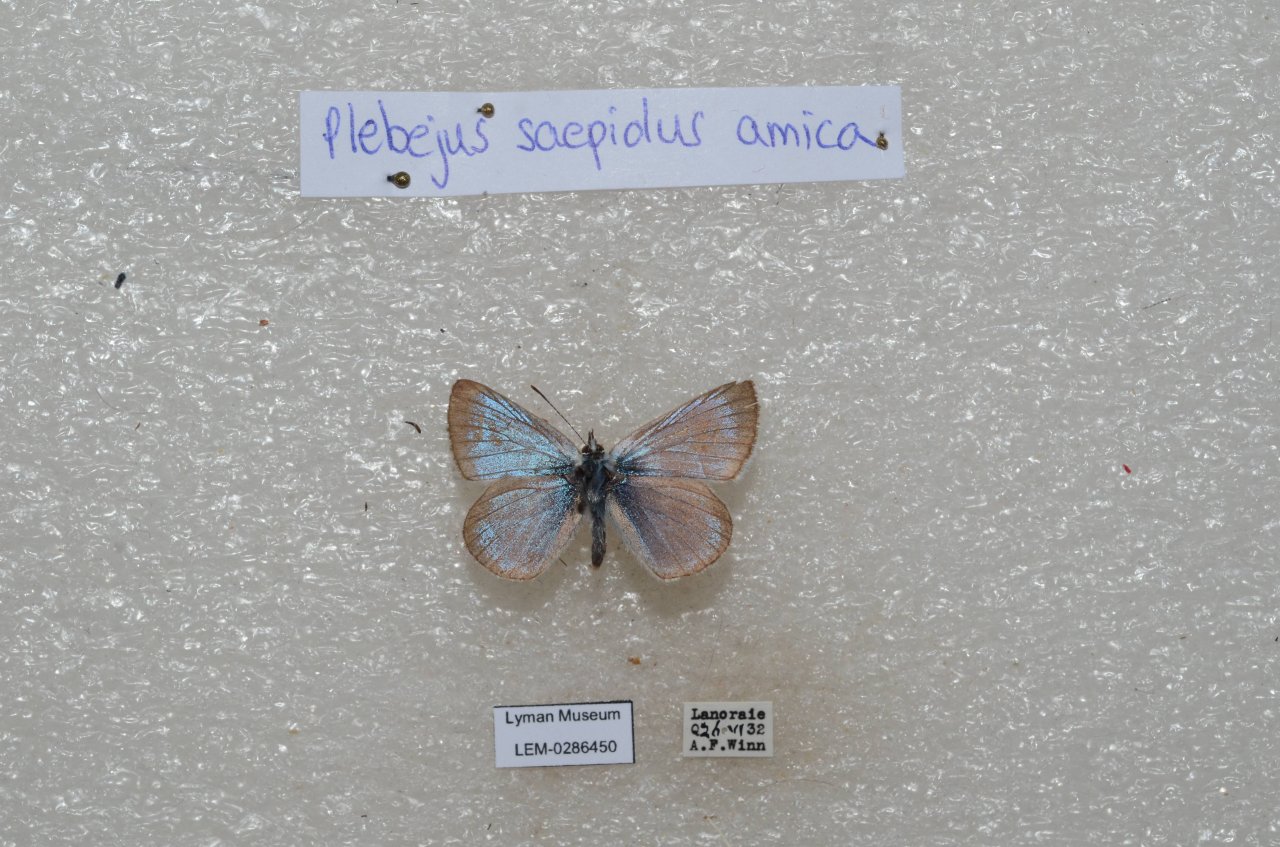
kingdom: Animalia
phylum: Arthropoda
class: Insecta
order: Lepidoptera
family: Lycaenidae
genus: Plebejus
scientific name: Plebejus saepiolus
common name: Greenish Blue
